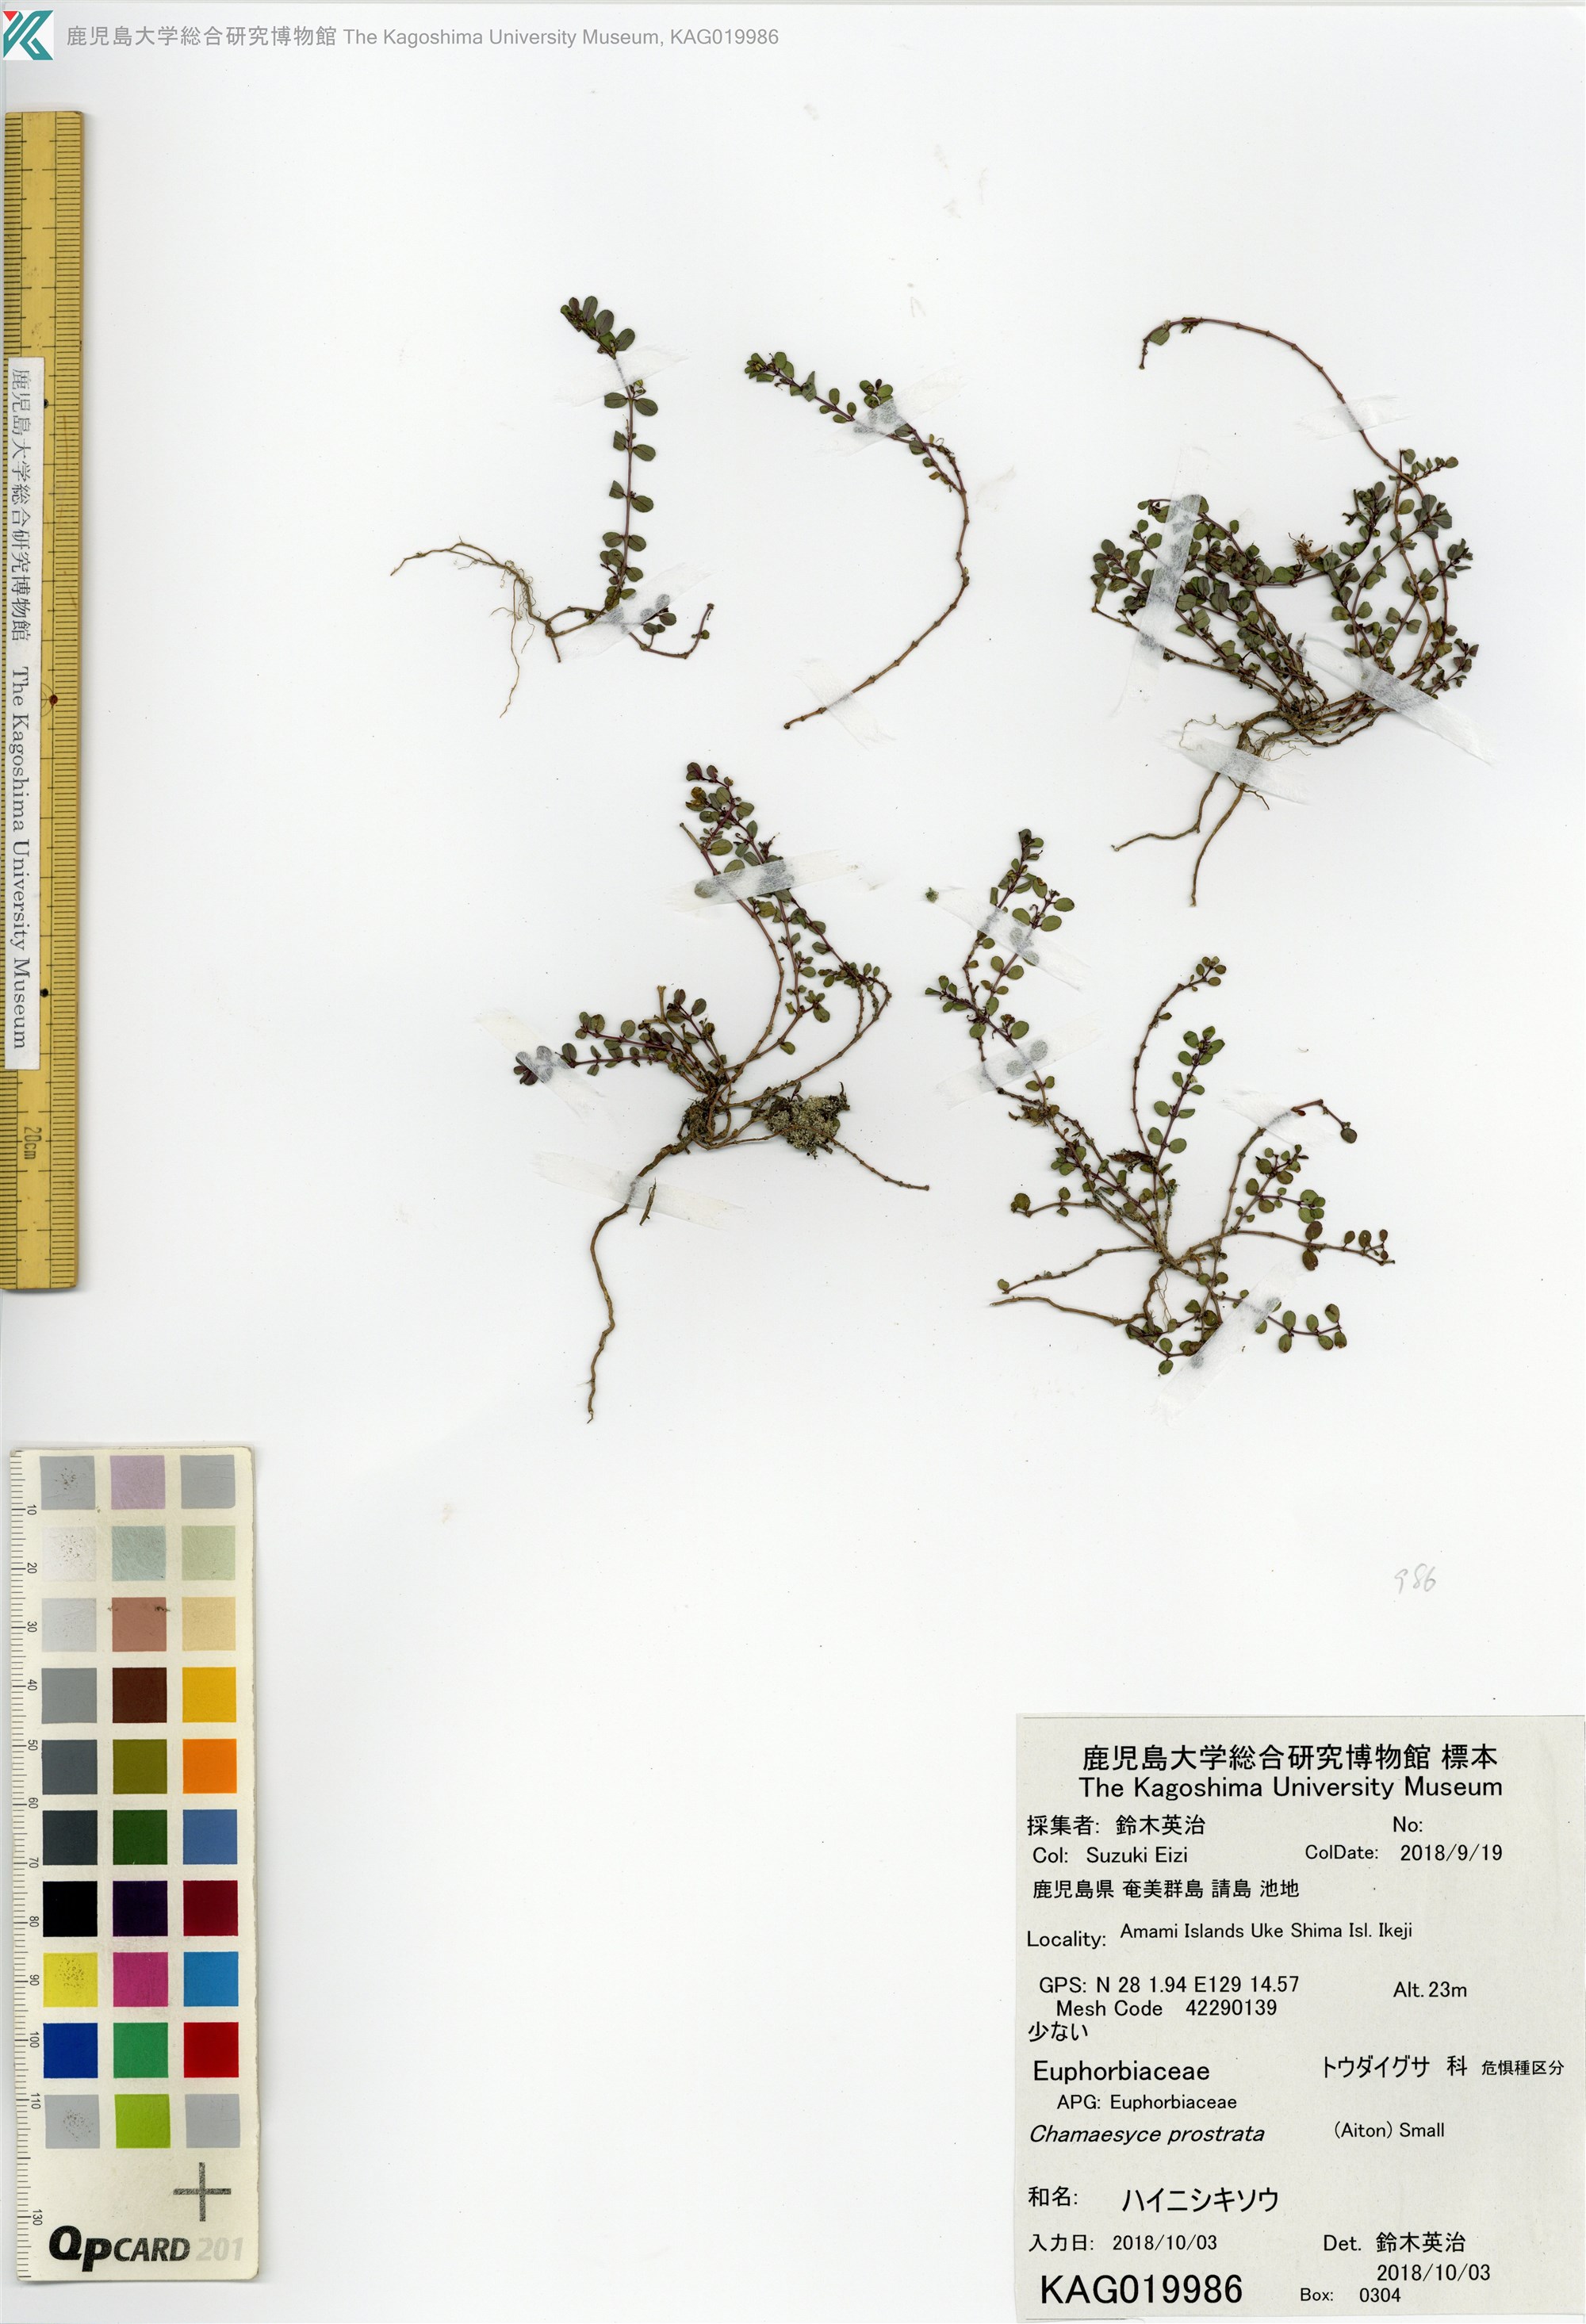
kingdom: Plantae
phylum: Tracheophyta
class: Magnoliopsida
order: Malpighiales
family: Euphorbiaceae
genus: Euphorbia
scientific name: Euphorbia prostrata
